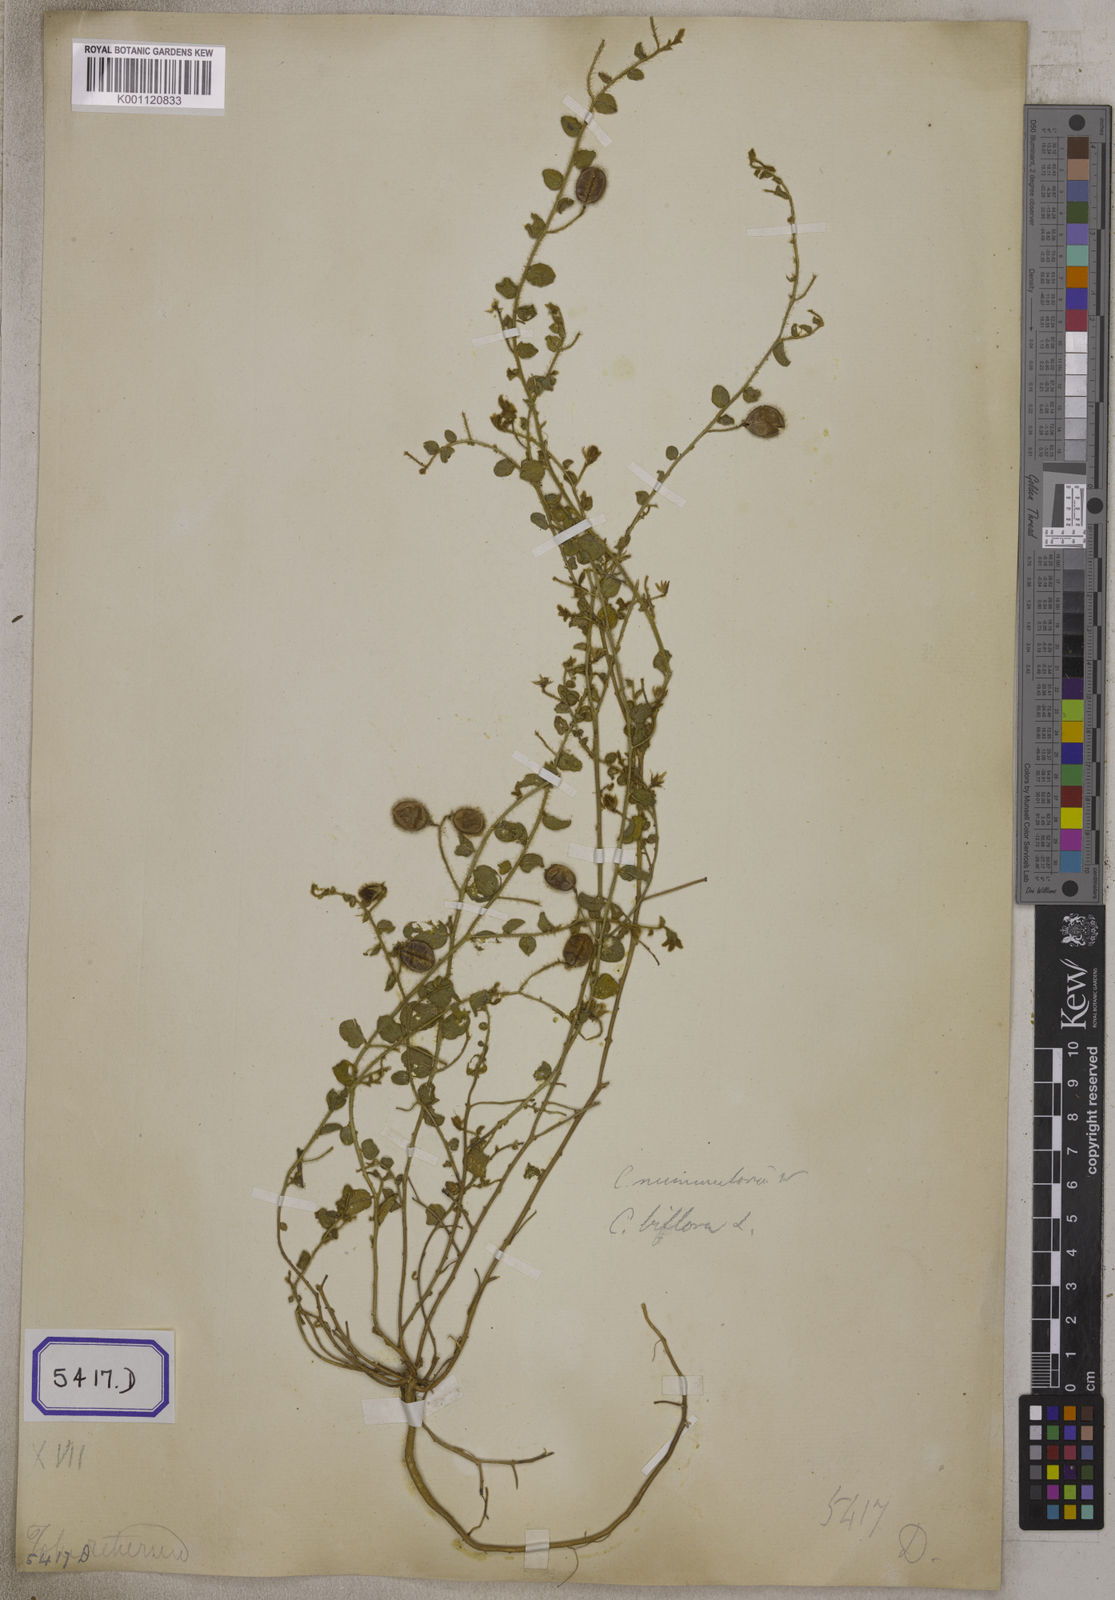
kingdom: Plantae
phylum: Tracheophyta
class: Magnoliopsida
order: Fabales
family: Fabaceae
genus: Crotalaria
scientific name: Crotalaria angulata
